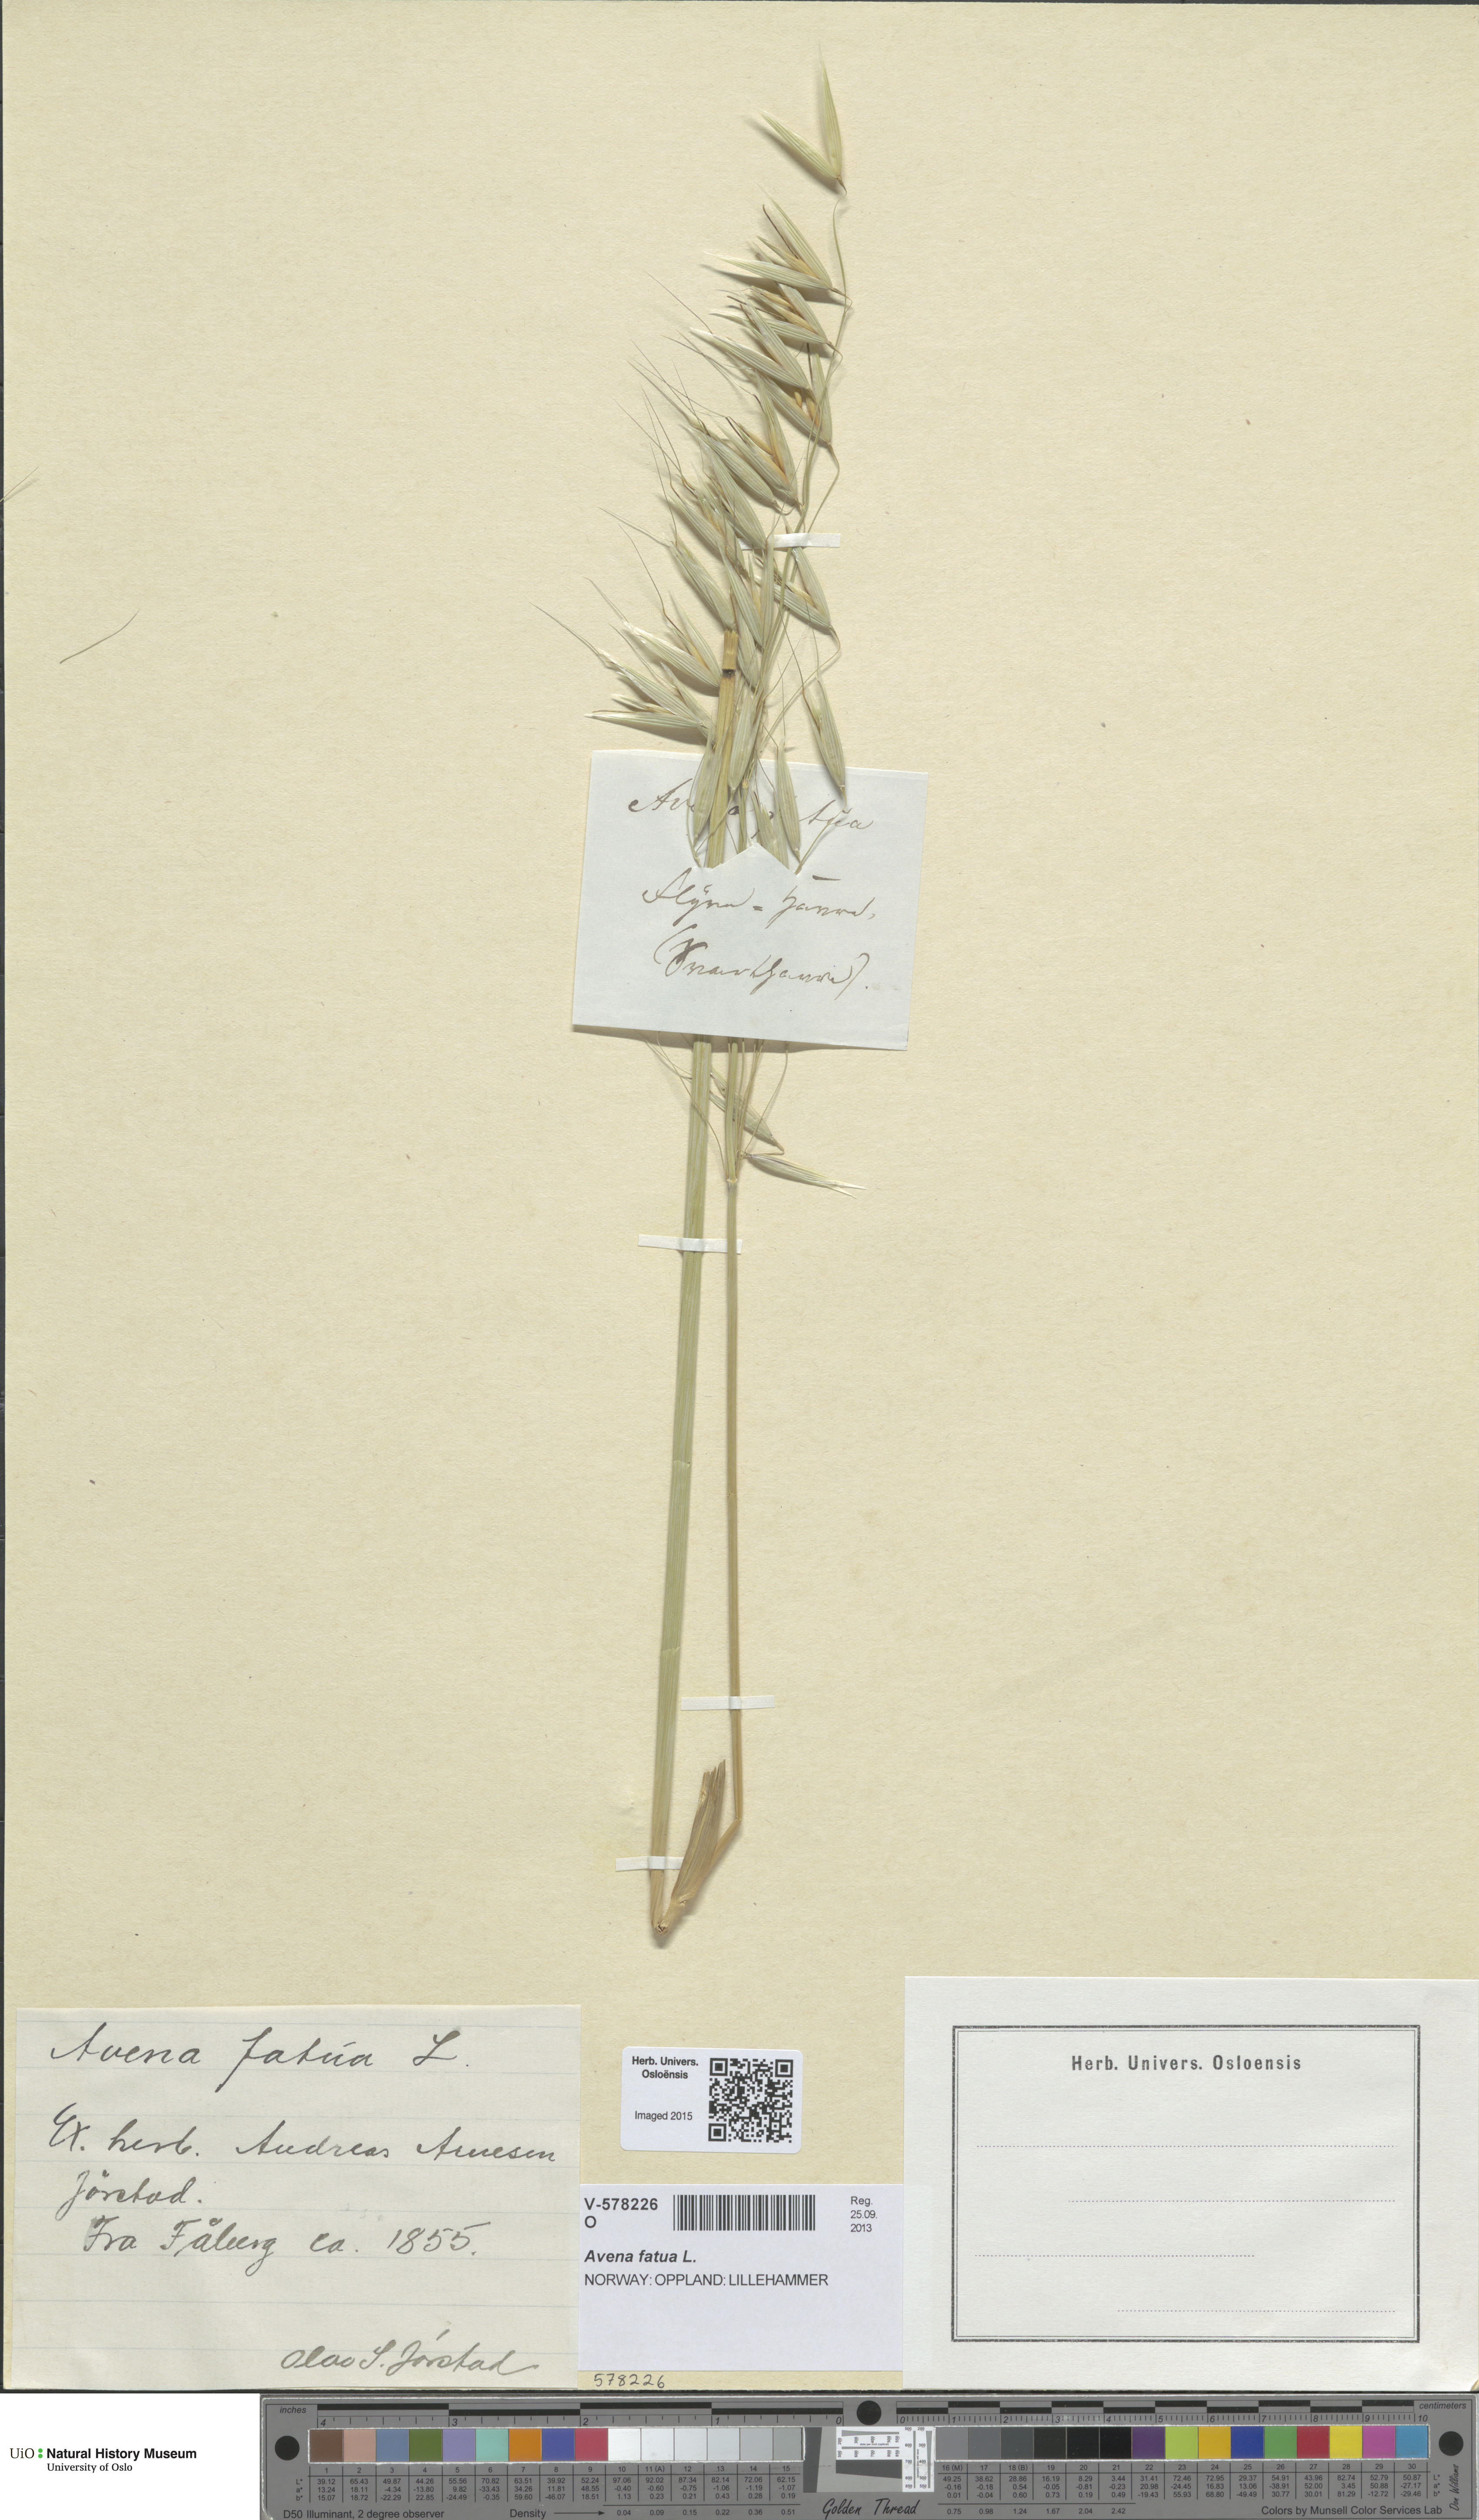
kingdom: Plantae
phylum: Tracheophyta
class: Liliopsida
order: Poales
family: Poaceae
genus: Avena
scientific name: Avena fatua
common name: Wild oat
